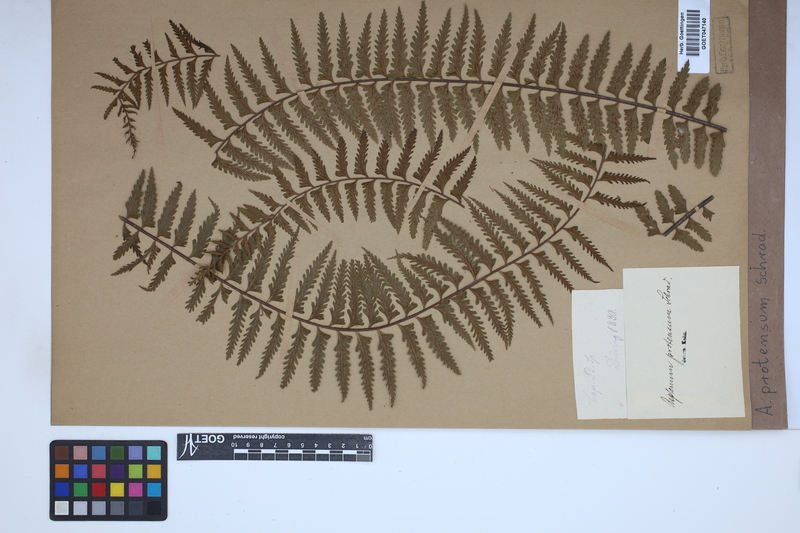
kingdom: Plantae
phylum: Tracheophyta
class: Polypodiopsida
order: Polypodiales
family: Aspleniaceae
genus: Asplenium
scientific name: Asplenium protensum
